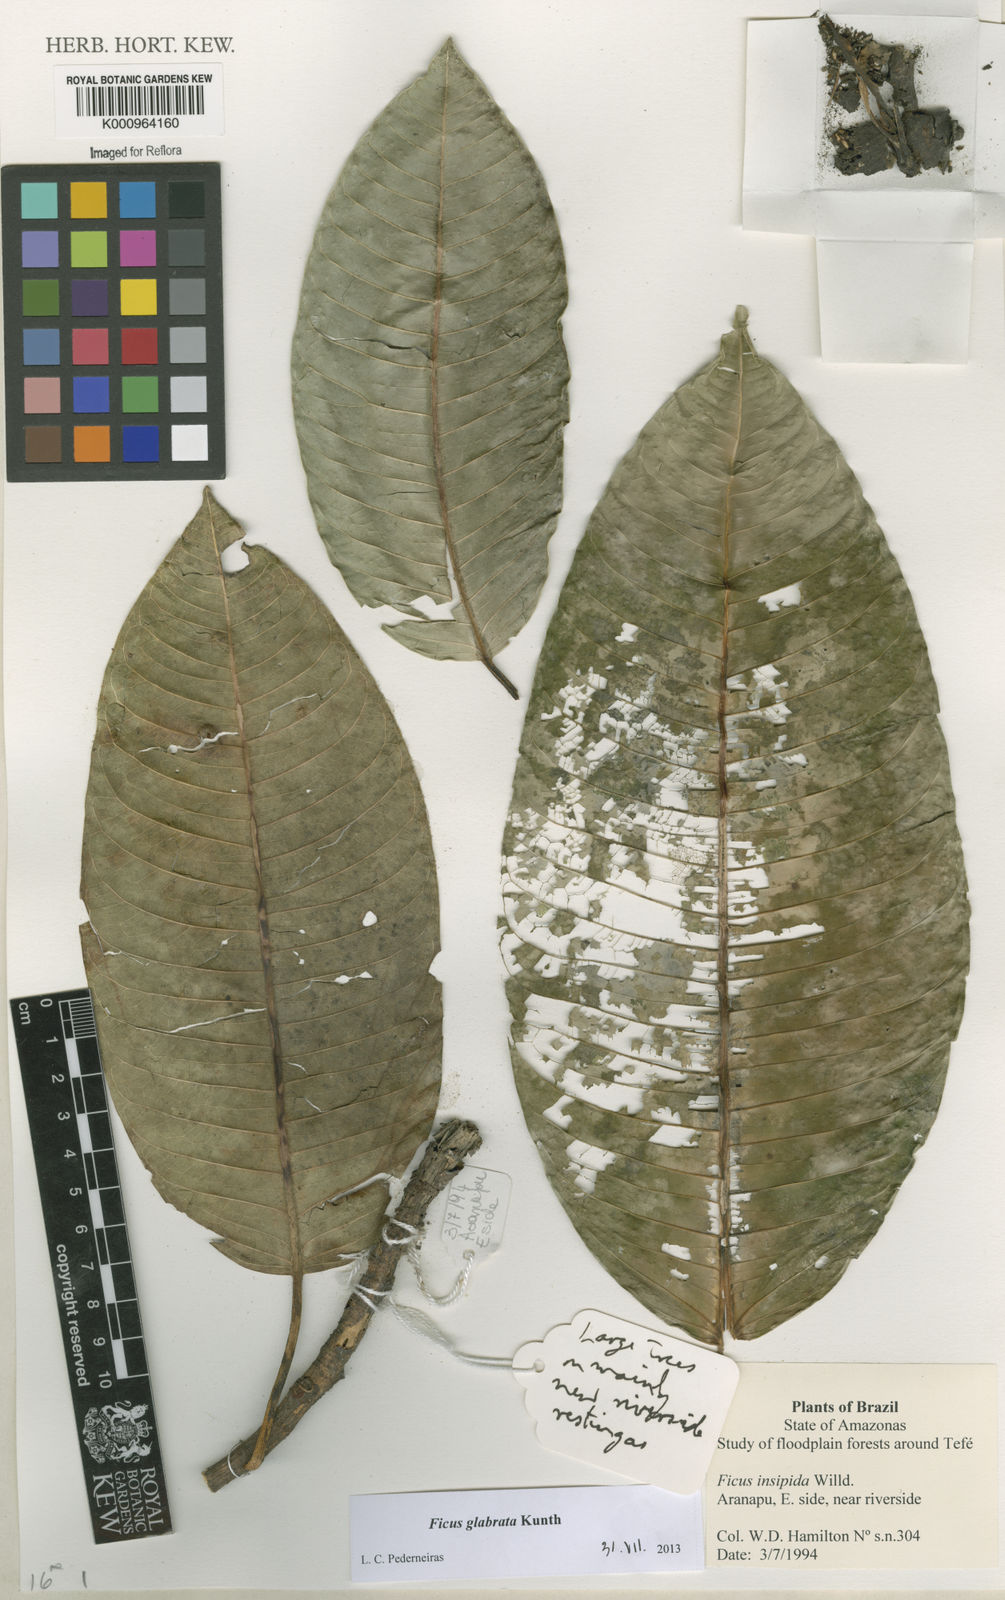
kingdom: Plantae
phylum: Tracheophyta
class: Magnoliopsida
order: Rosales
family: Moraceae
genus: Ficus
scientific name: Ficus insipida
